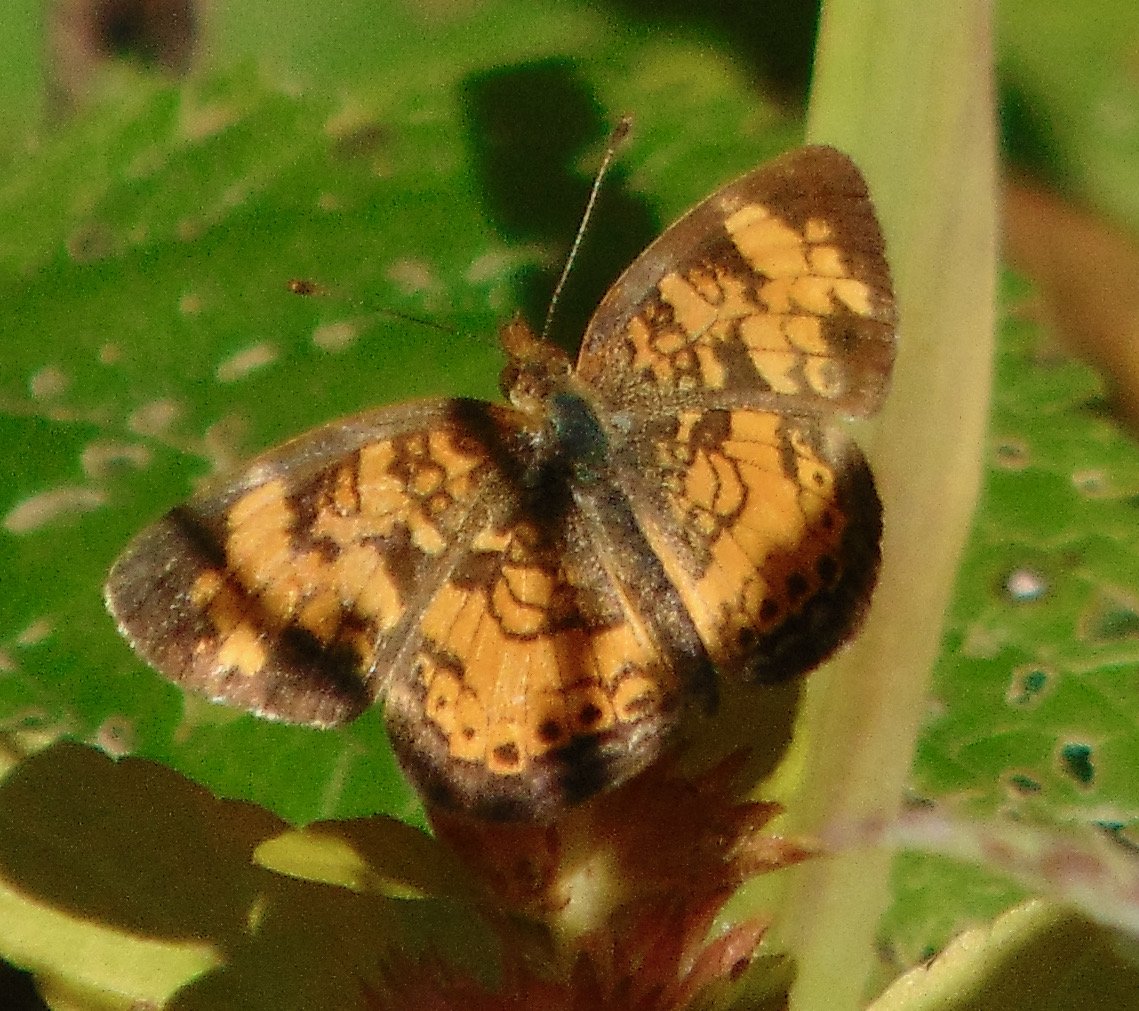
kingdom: Animalia
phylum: Arthropoda
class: Insecta
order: Lepidoptera
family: Nymphalidae
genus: Phyciodes
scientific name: Phyciodes tharos
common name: Pearl Crescent
